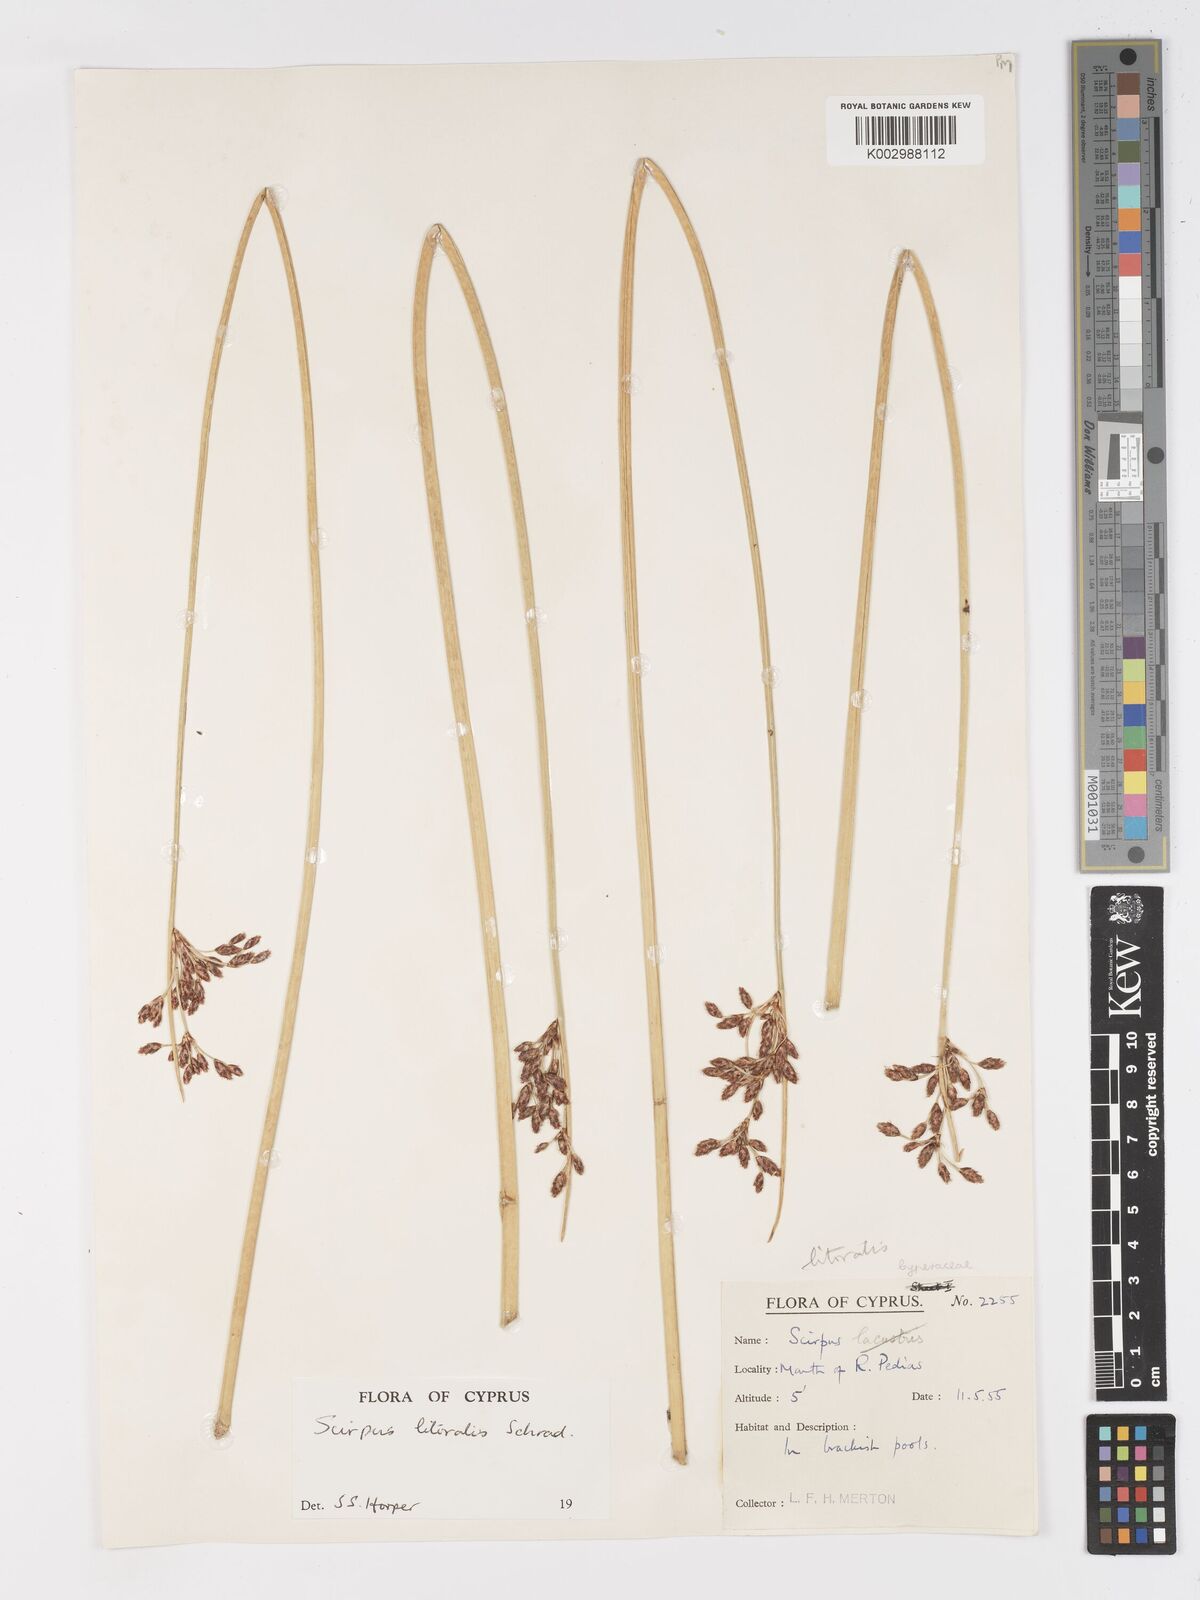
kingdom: Plantae
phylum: Tracheophyta
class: Liliopsida
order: Poales
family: Cyperaceae
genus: Schoenoplectus
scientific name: Schoenoplectus litoralis
